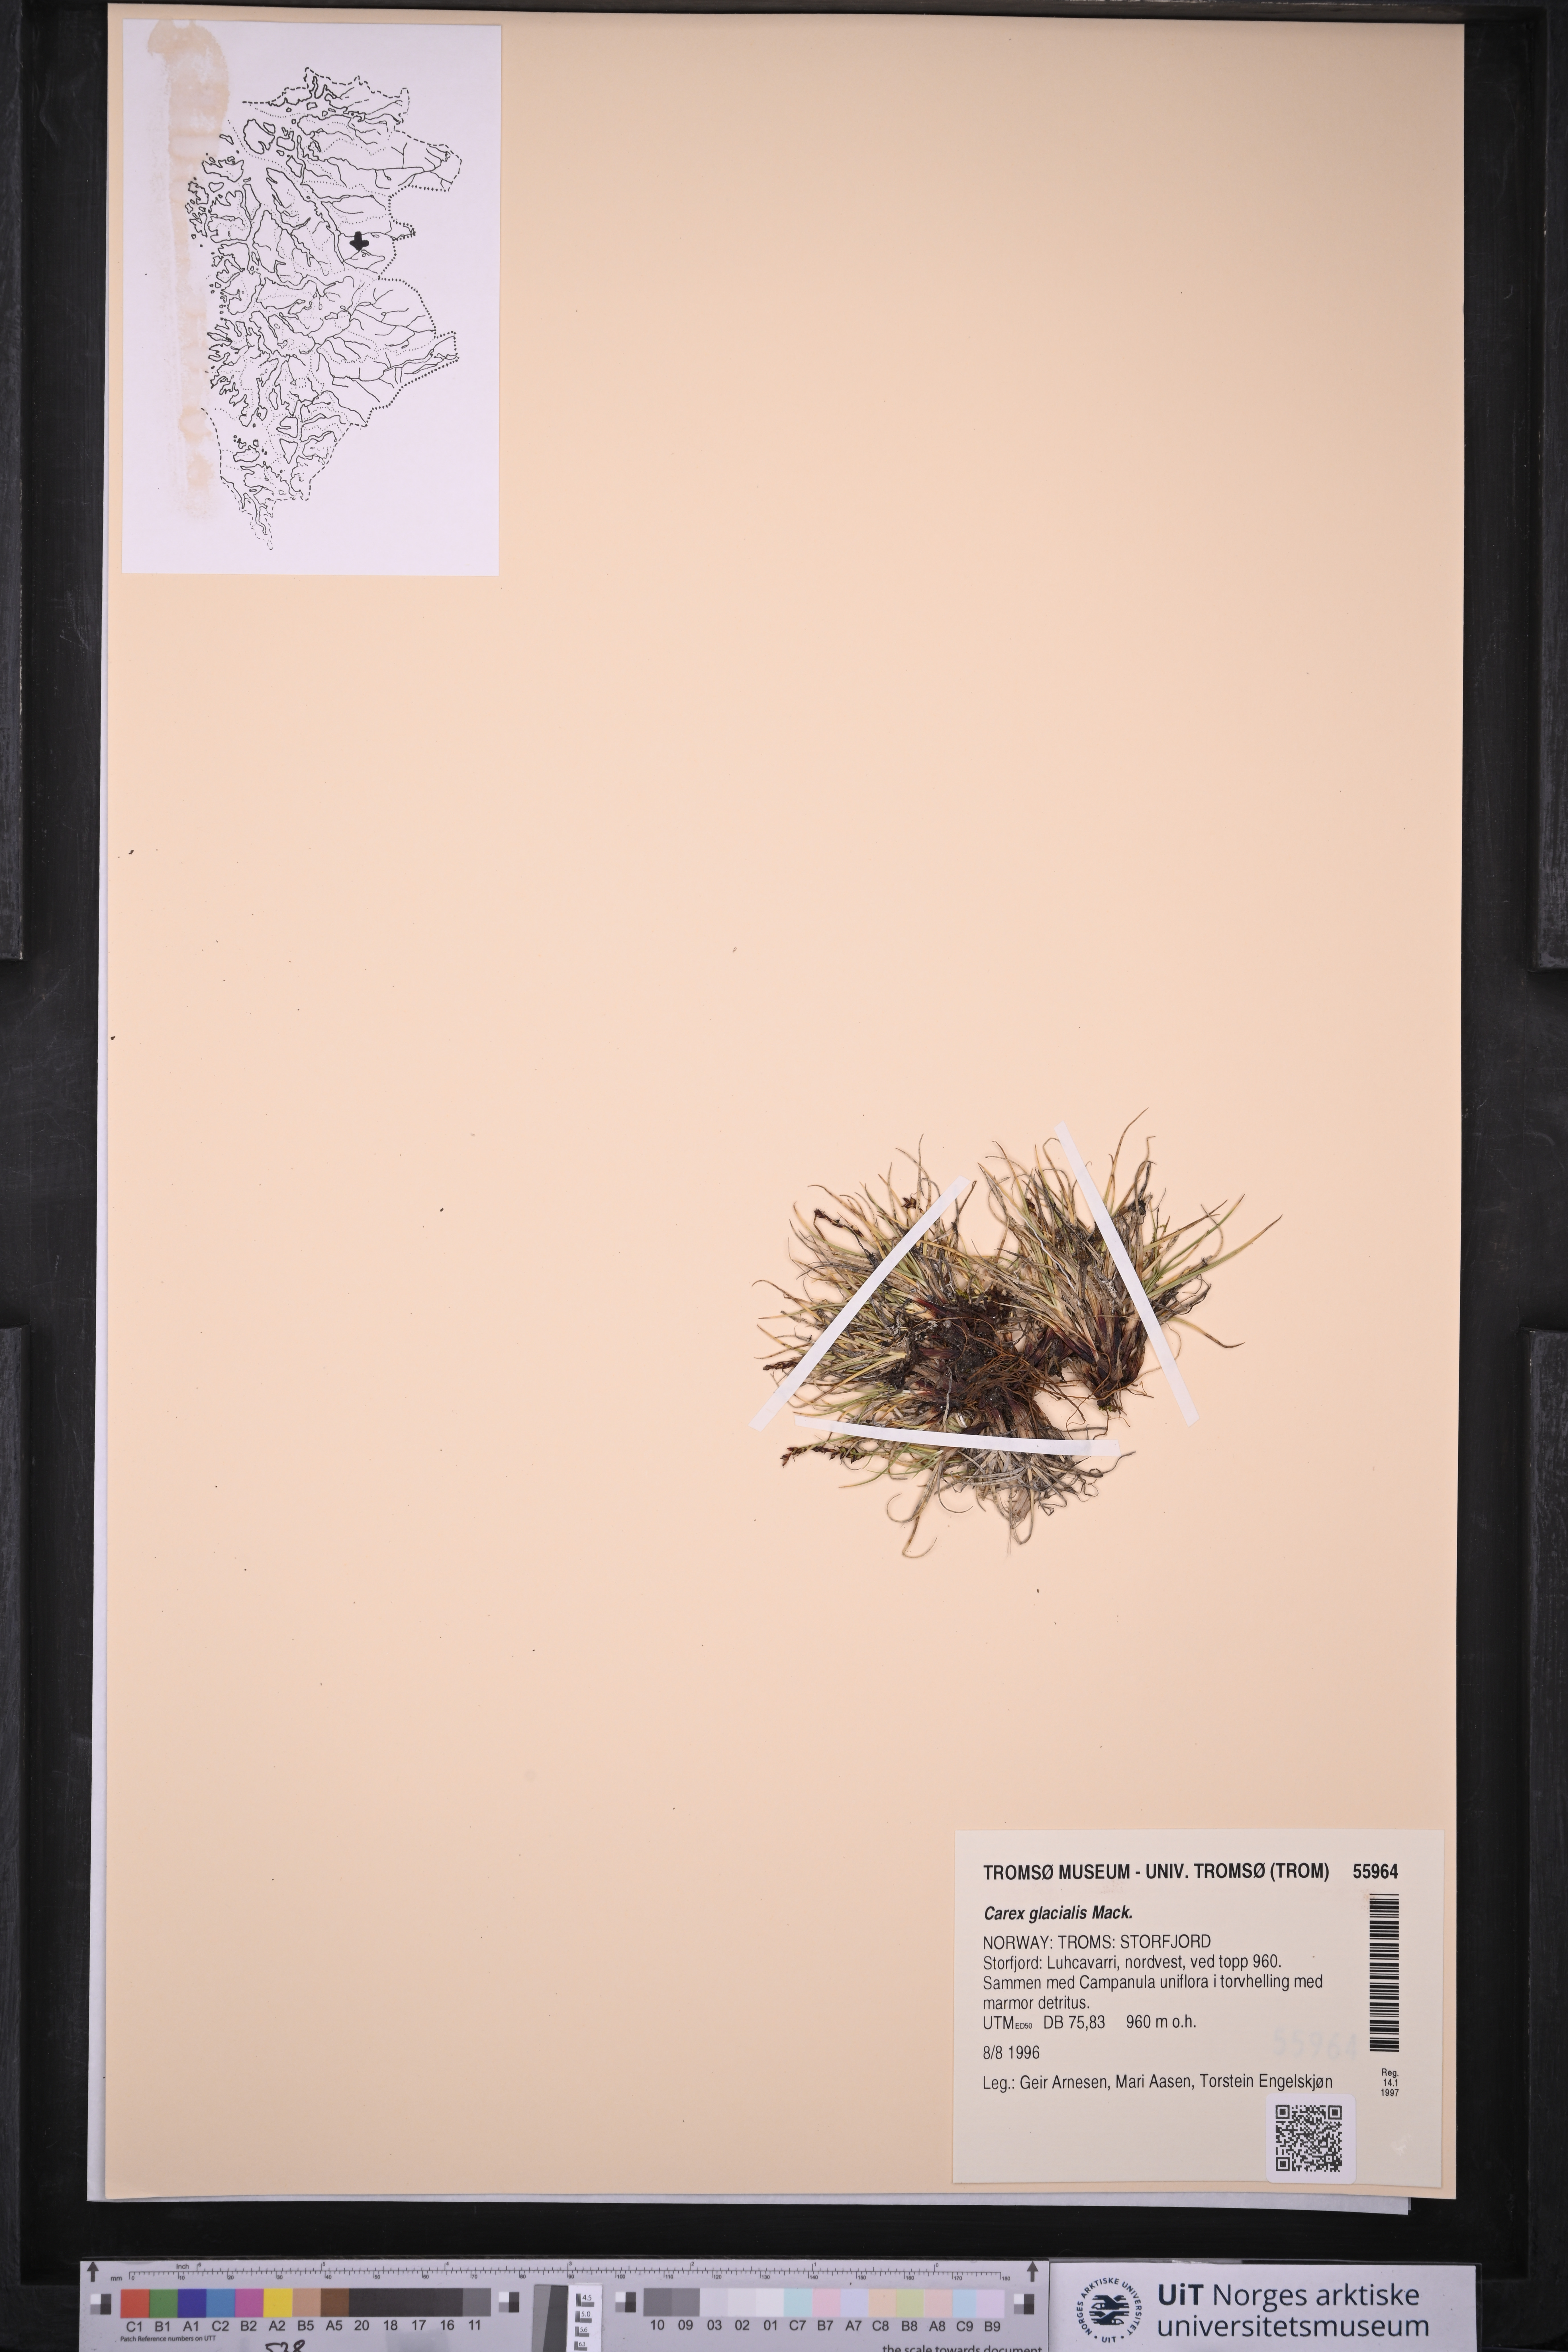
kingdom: Plantae
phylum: Tracheophyta
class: Liliopsida
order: Poales
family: Cyperaceae
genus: Carex
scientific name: Carex glacialis
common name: Newfoundland sedge
